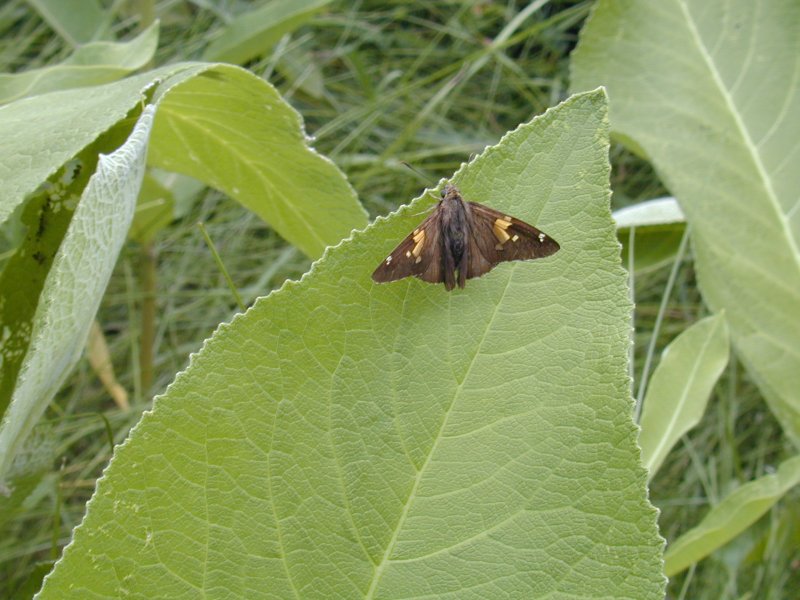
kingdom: Animalia
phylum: Arthropoda
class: Insecta
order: Lepidoptera
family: Hesperiidae
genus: Epargyreus
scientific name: Epargyreus clarus
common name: Silver-spotted Skipper
